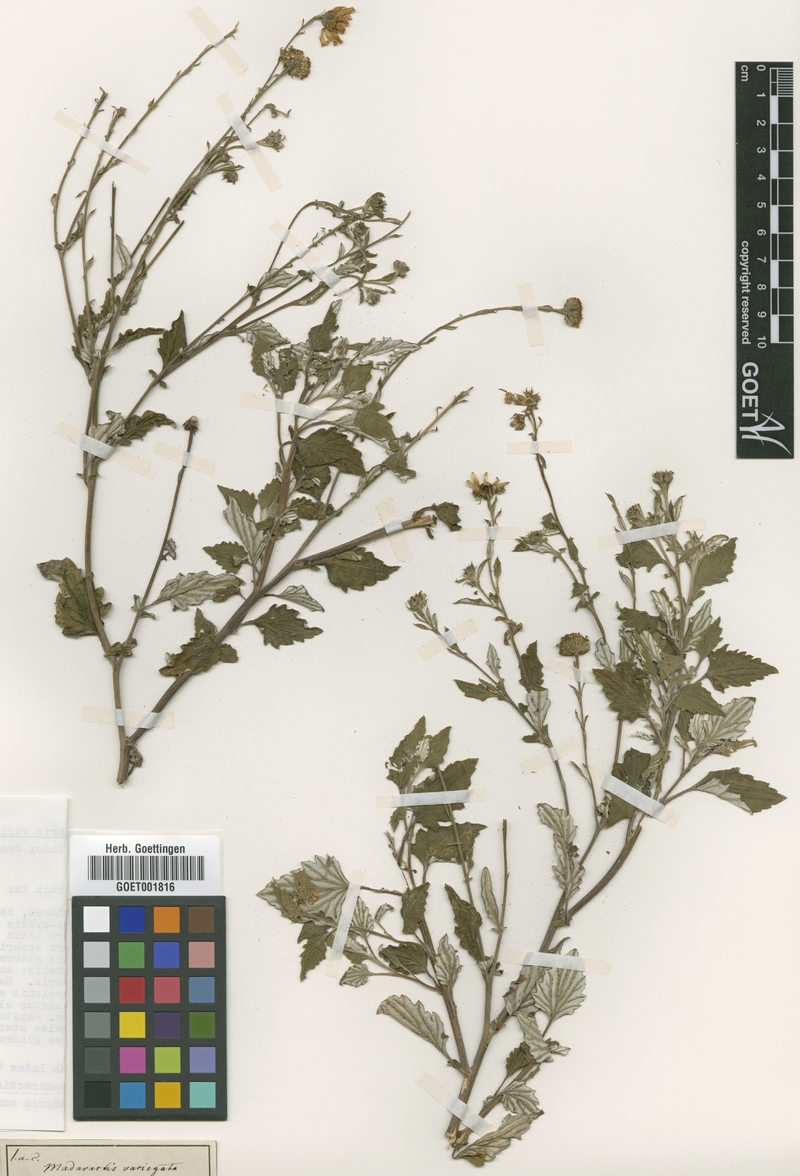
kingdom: Plantae
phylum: Tracheophyta
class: Magnoliopsida
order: Asterales
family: Asteraceae
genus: Senecio
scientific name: Senecio Madaractis variegata
